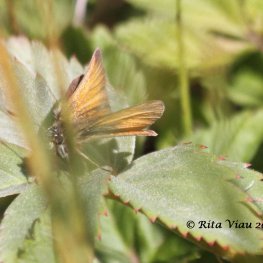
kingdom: Animalia
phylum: Arthropoda
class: Insecta
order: Lepidoptera
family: Hesperiidae
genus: Thymelicus
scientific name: Thymelicus lineola
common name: European Skipper
